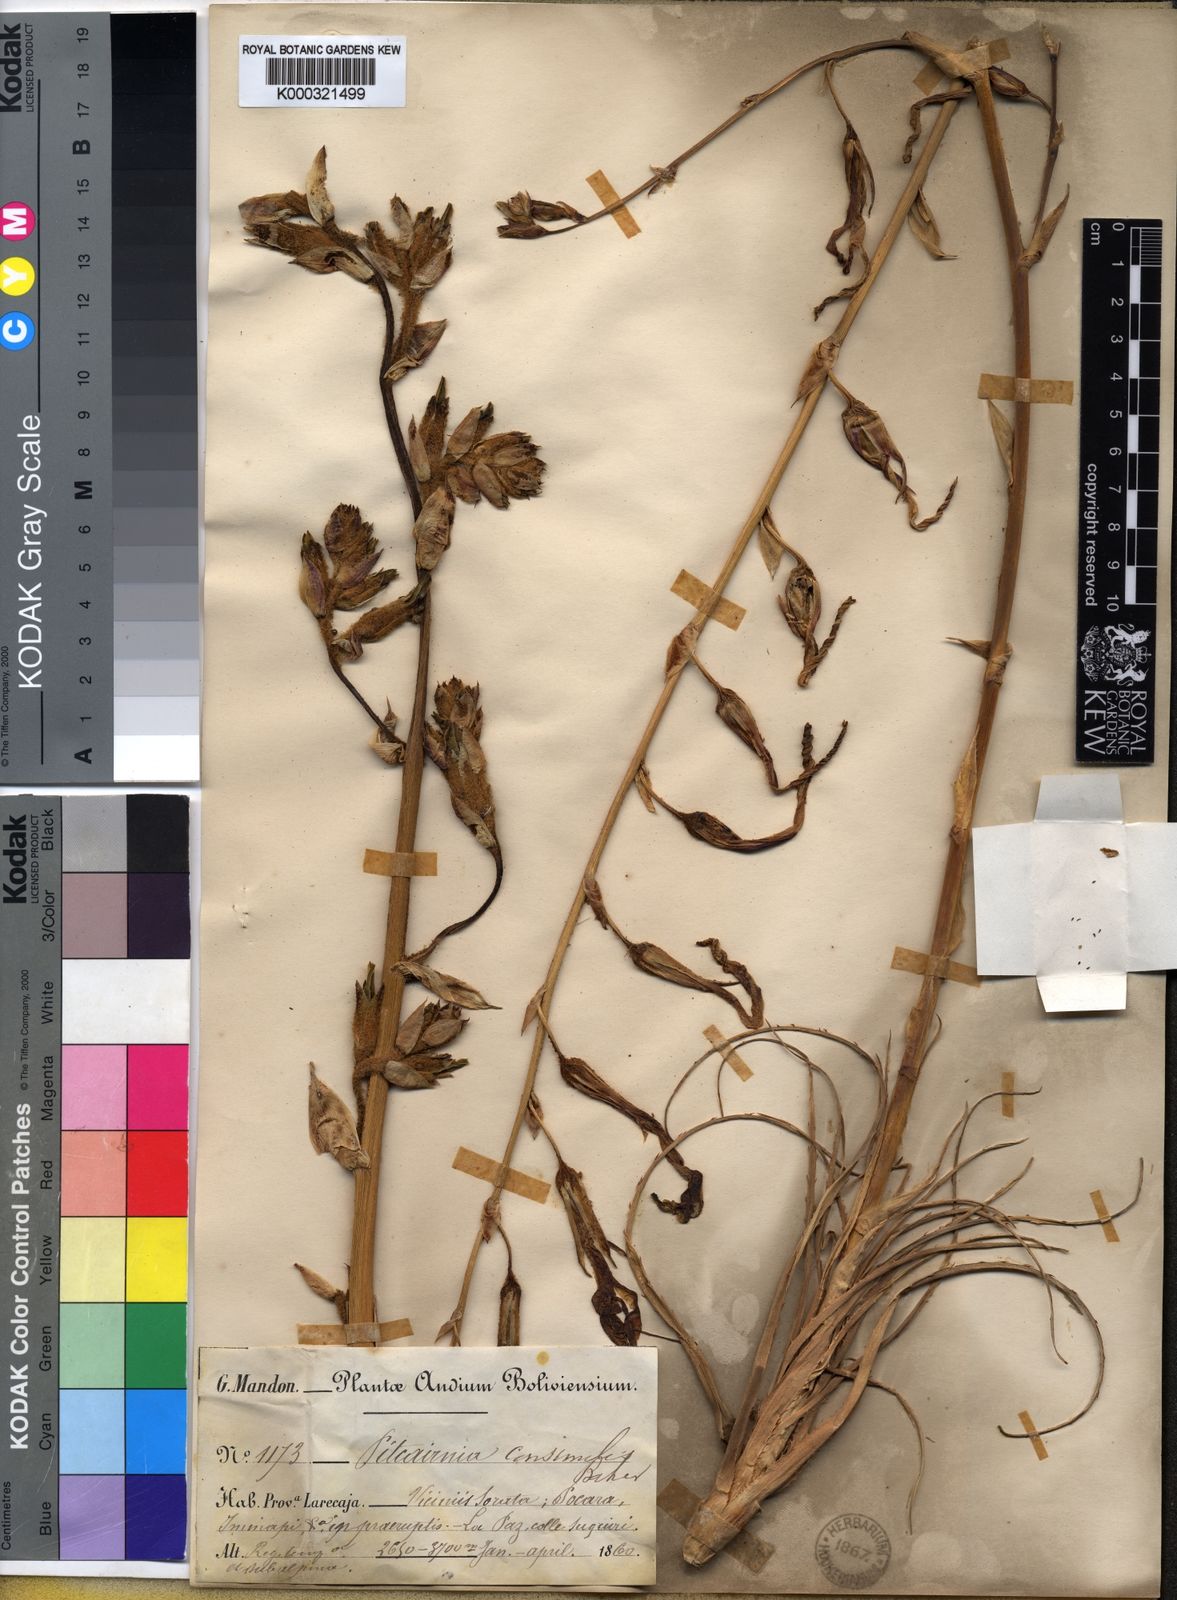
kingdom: Plantae
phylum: Tracheophyta
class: Liliopsida
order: Poales
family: Bromeliaceae
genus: Puya
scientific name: Puya ferruginea
